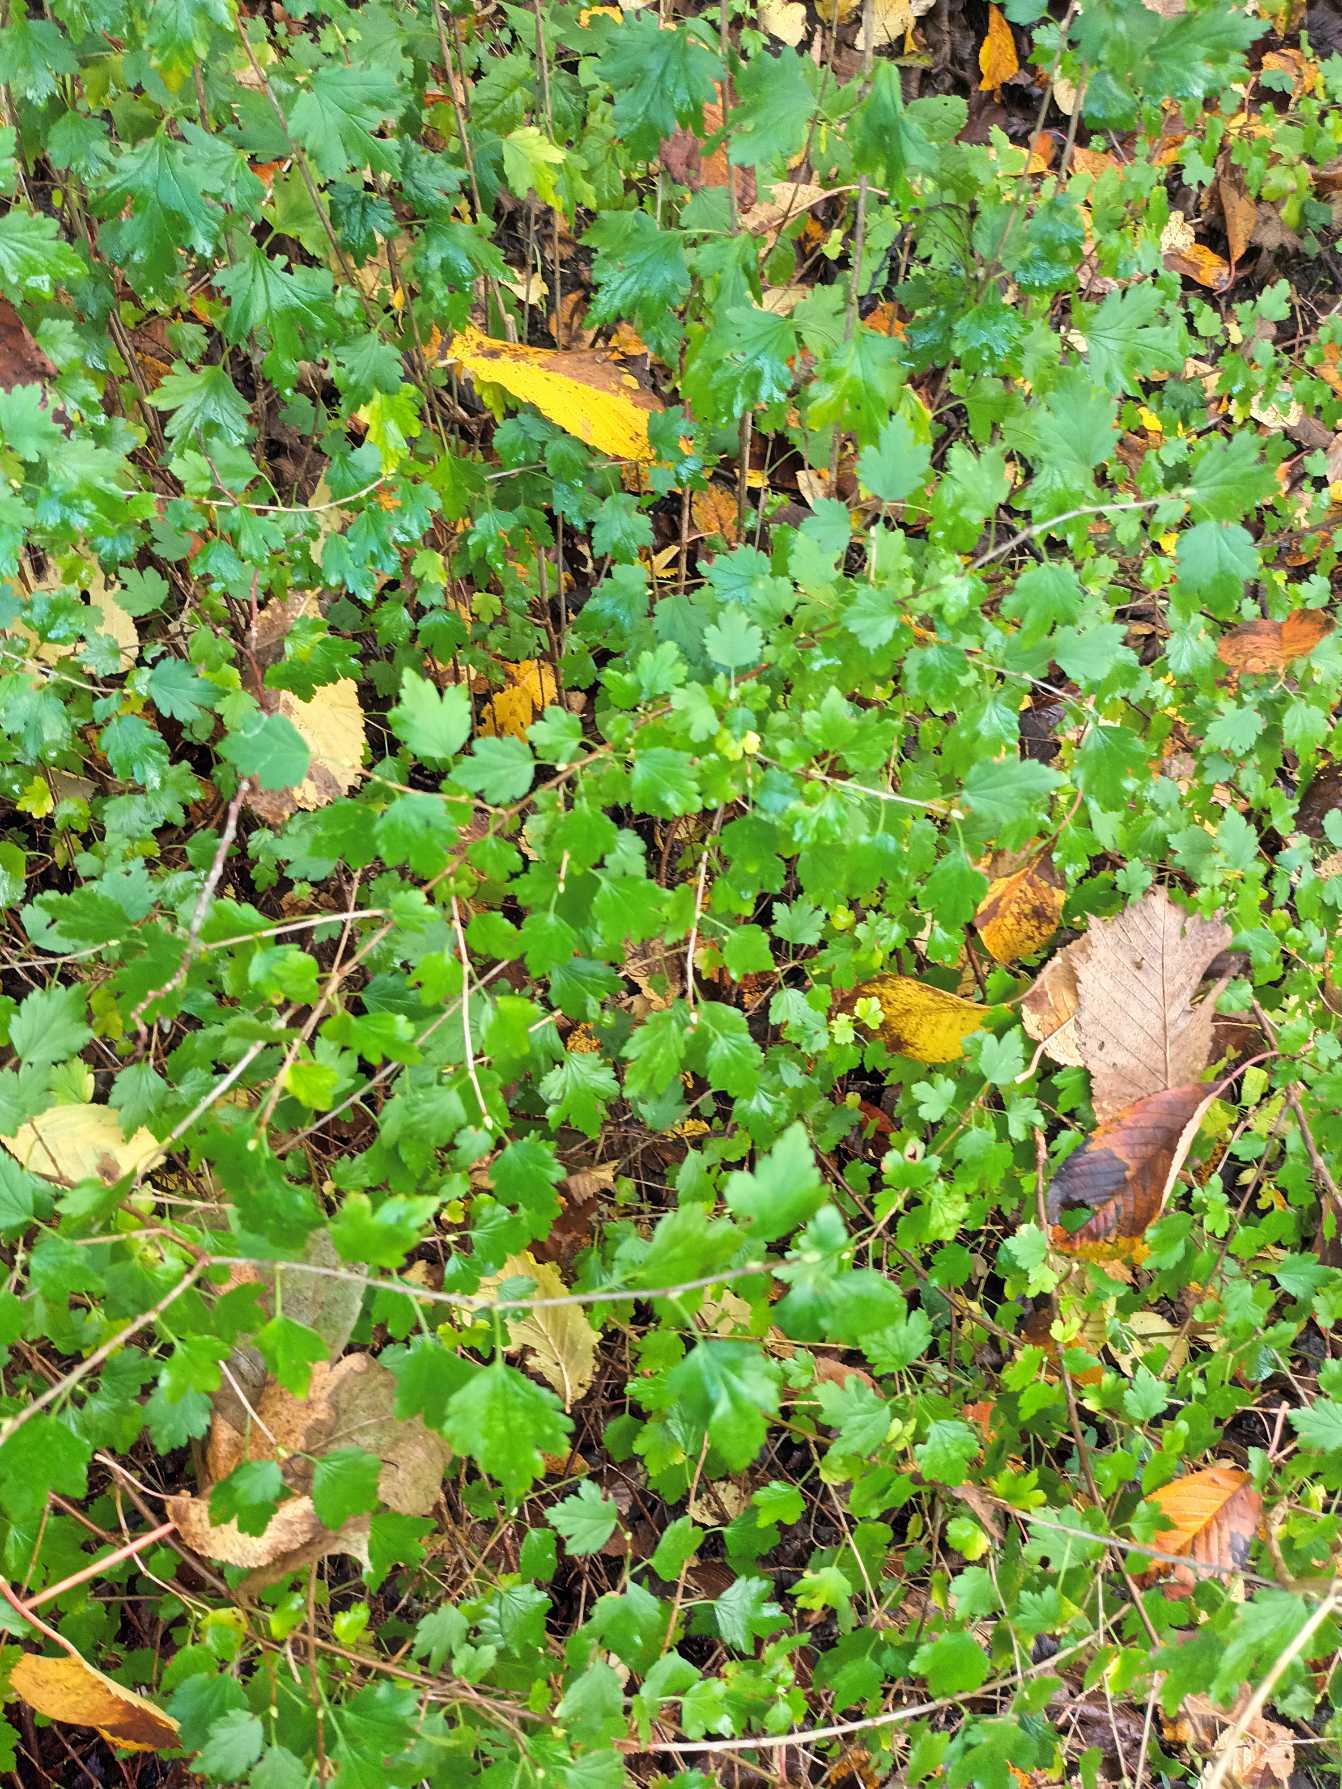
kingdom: Plantae
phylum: Tracheophyta
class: Magnoliopsida
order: Saxifragales
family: Grossulariaceae
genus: Ribes
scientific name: Ribes alpinum
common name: Fjeld-ribs
